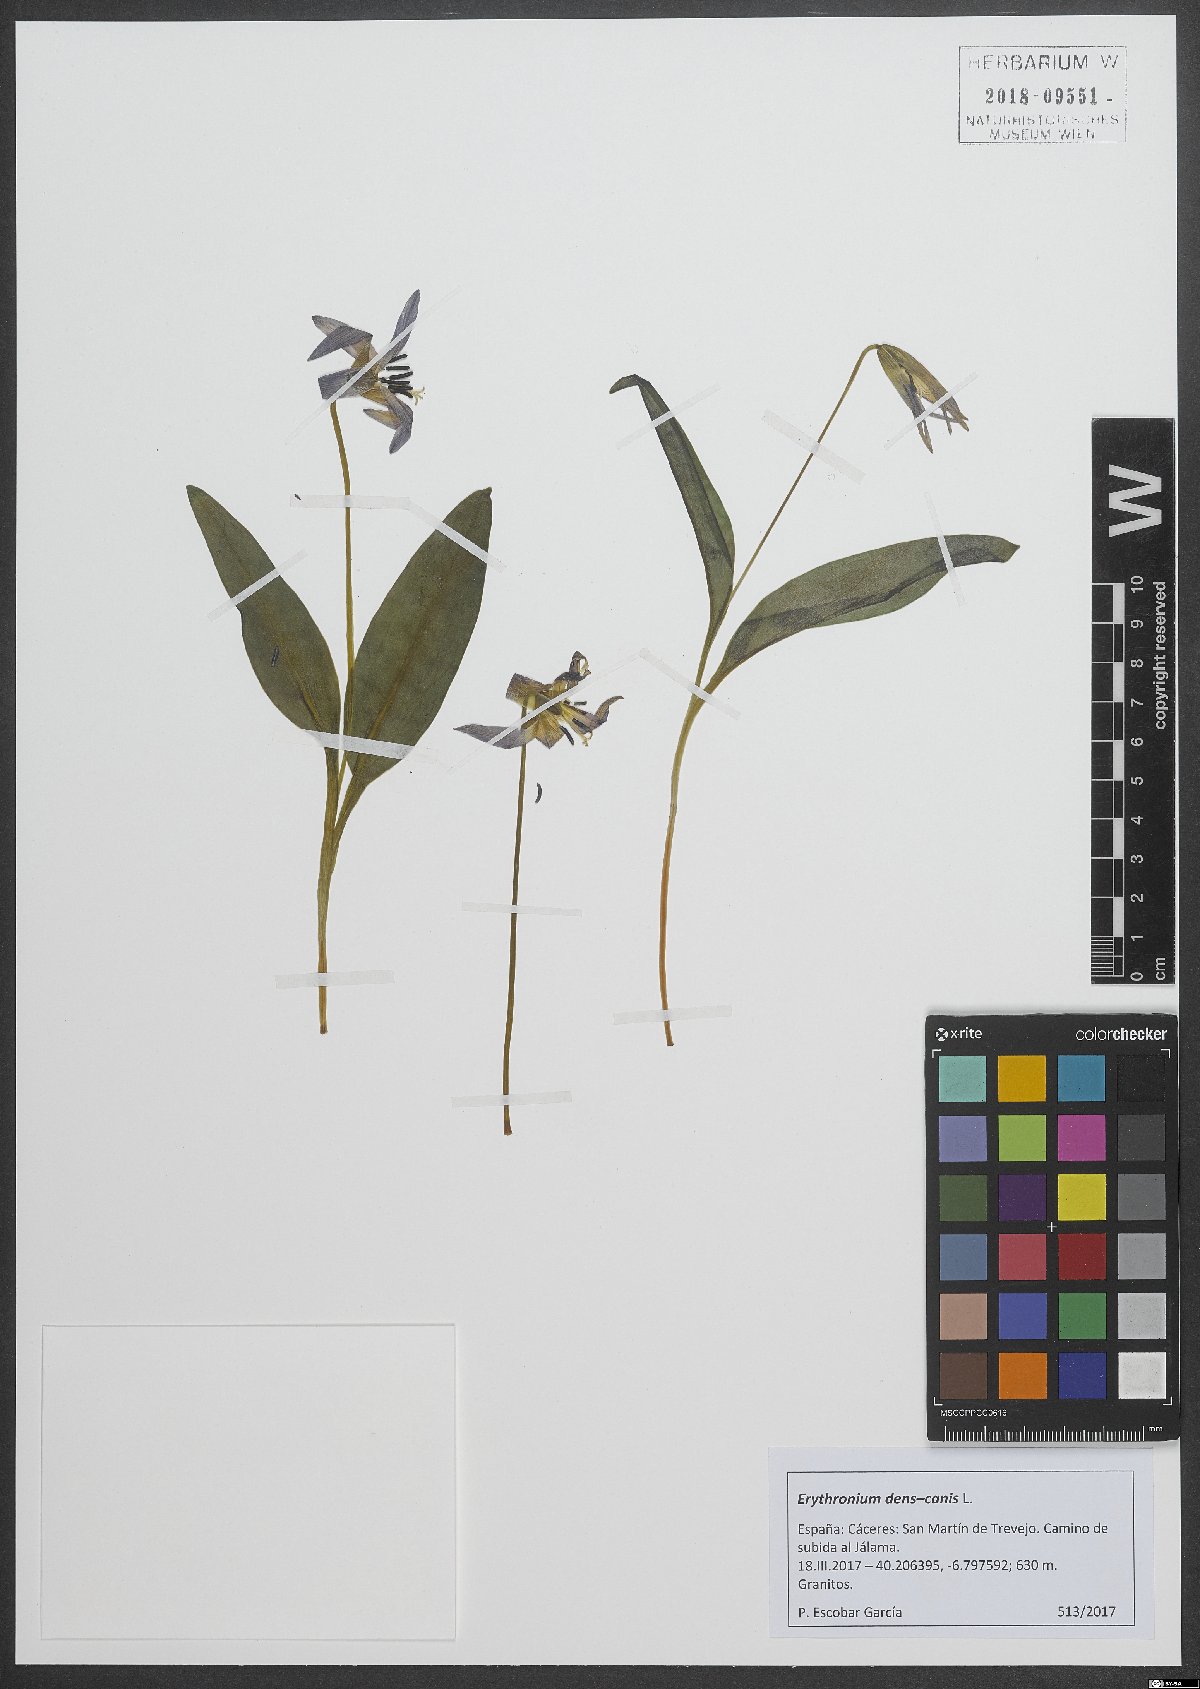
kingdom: Plantae
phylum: Tracheophyta
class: Liliopsida
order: Liliales
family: Liliaceae
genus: Erythronium
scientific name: Erythronium dens-canis
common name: Dog's-tooth-violet
